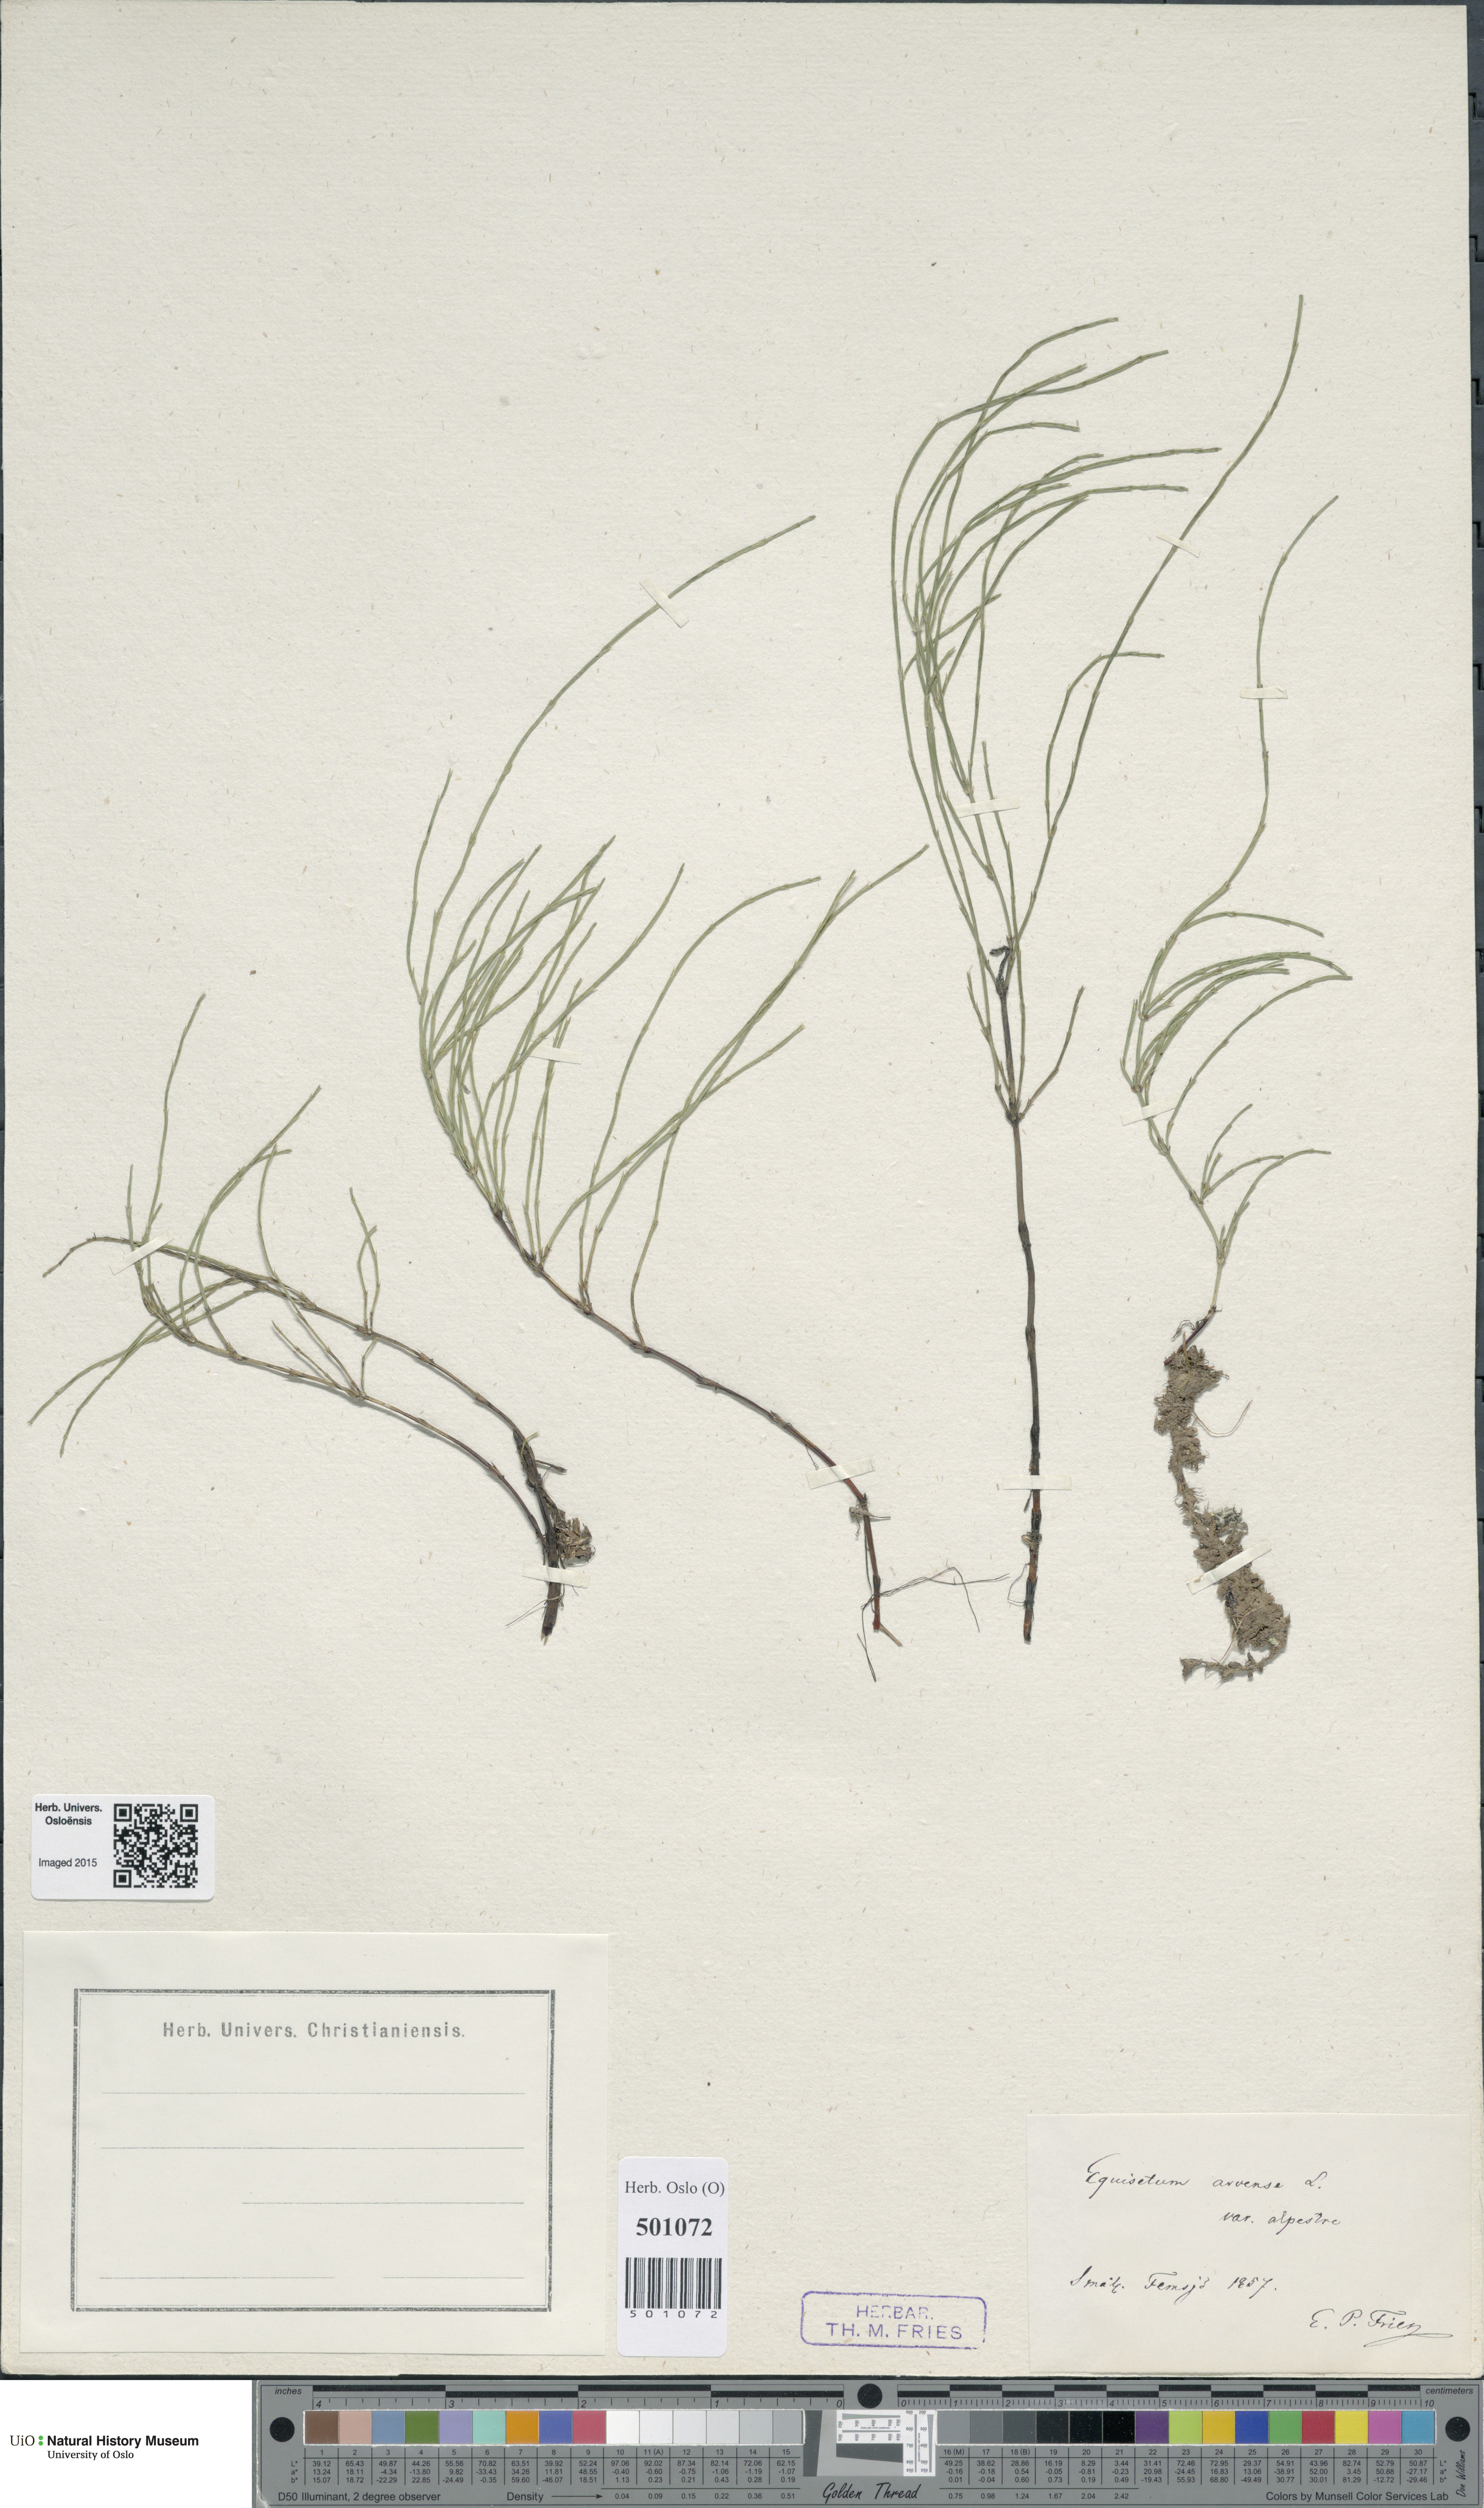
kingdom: Plantae
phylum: Tracheophyta
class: Polypodiopsida
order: Equisetales
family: Equisetaceae
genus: Equisetum
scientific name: Equisetum arvense
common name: Field horsetail
